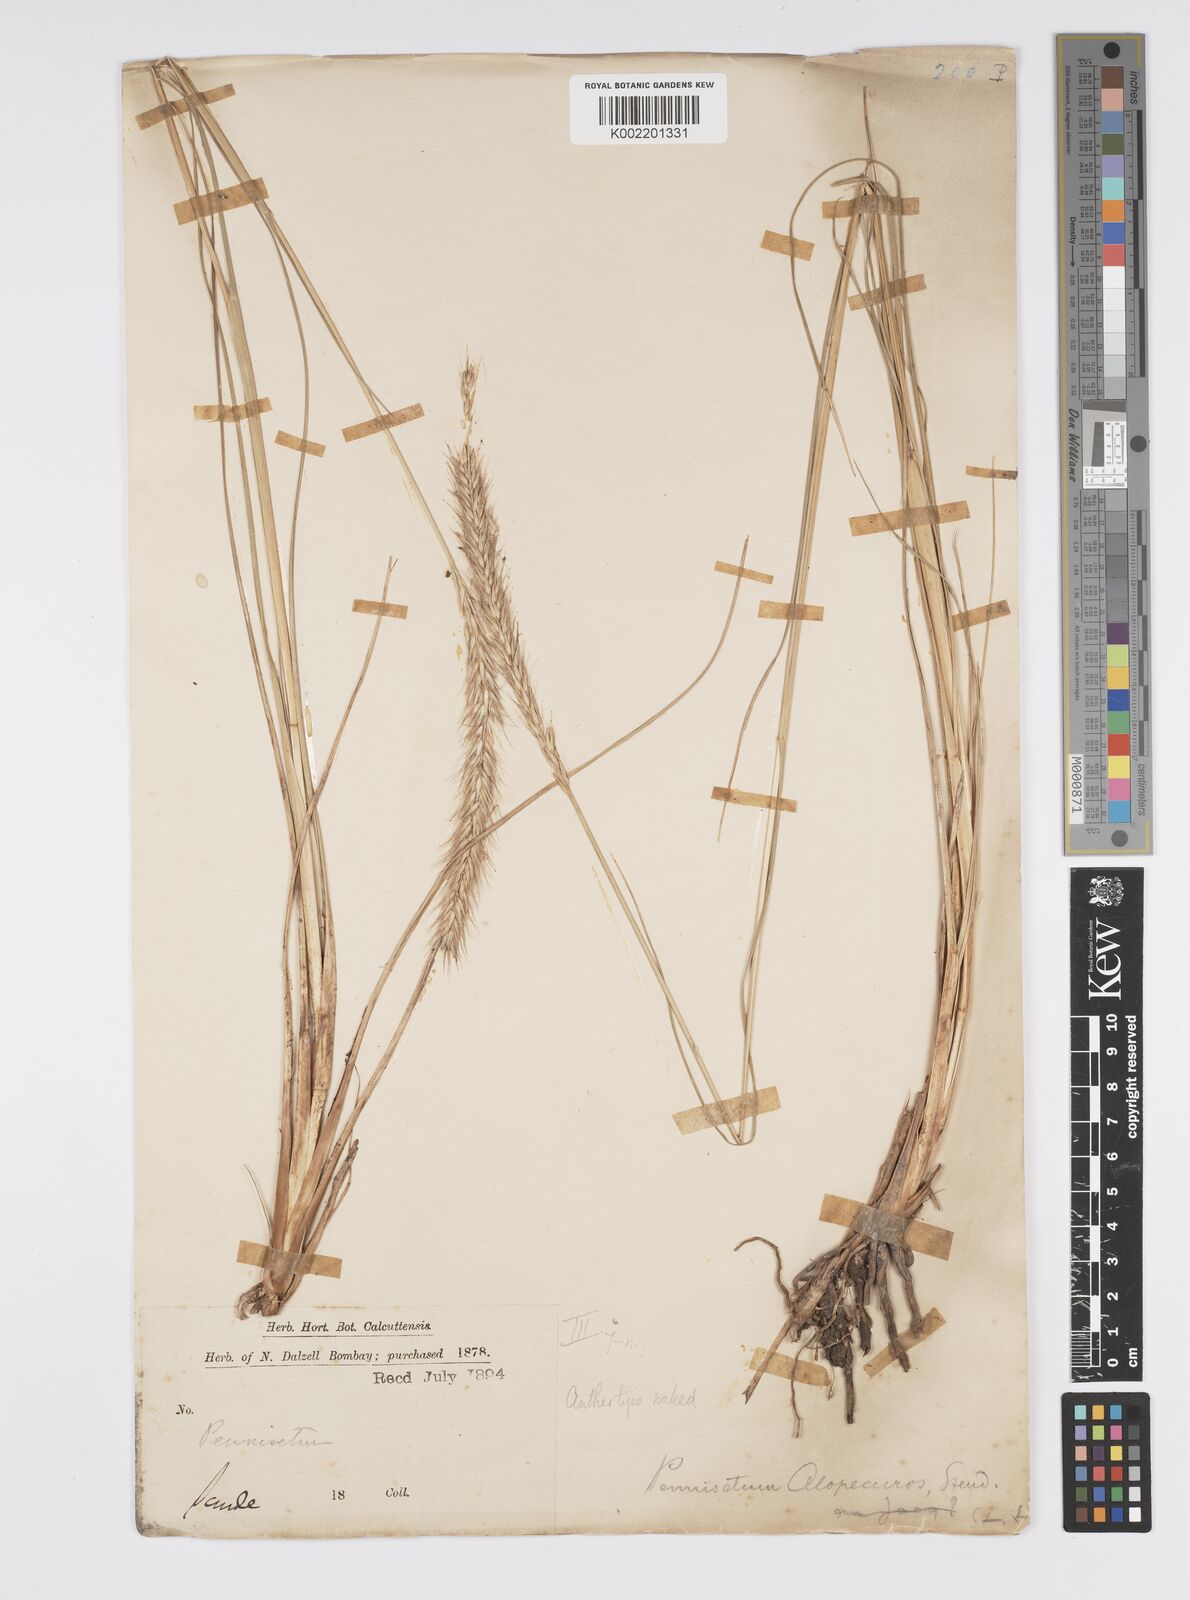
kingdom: Plantae
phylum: Tracheophyta
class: Liliopsida
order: Poales
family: Poaceae
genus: Cenchrus
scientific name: Cenchrus hohenackeri
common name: Moya grass
